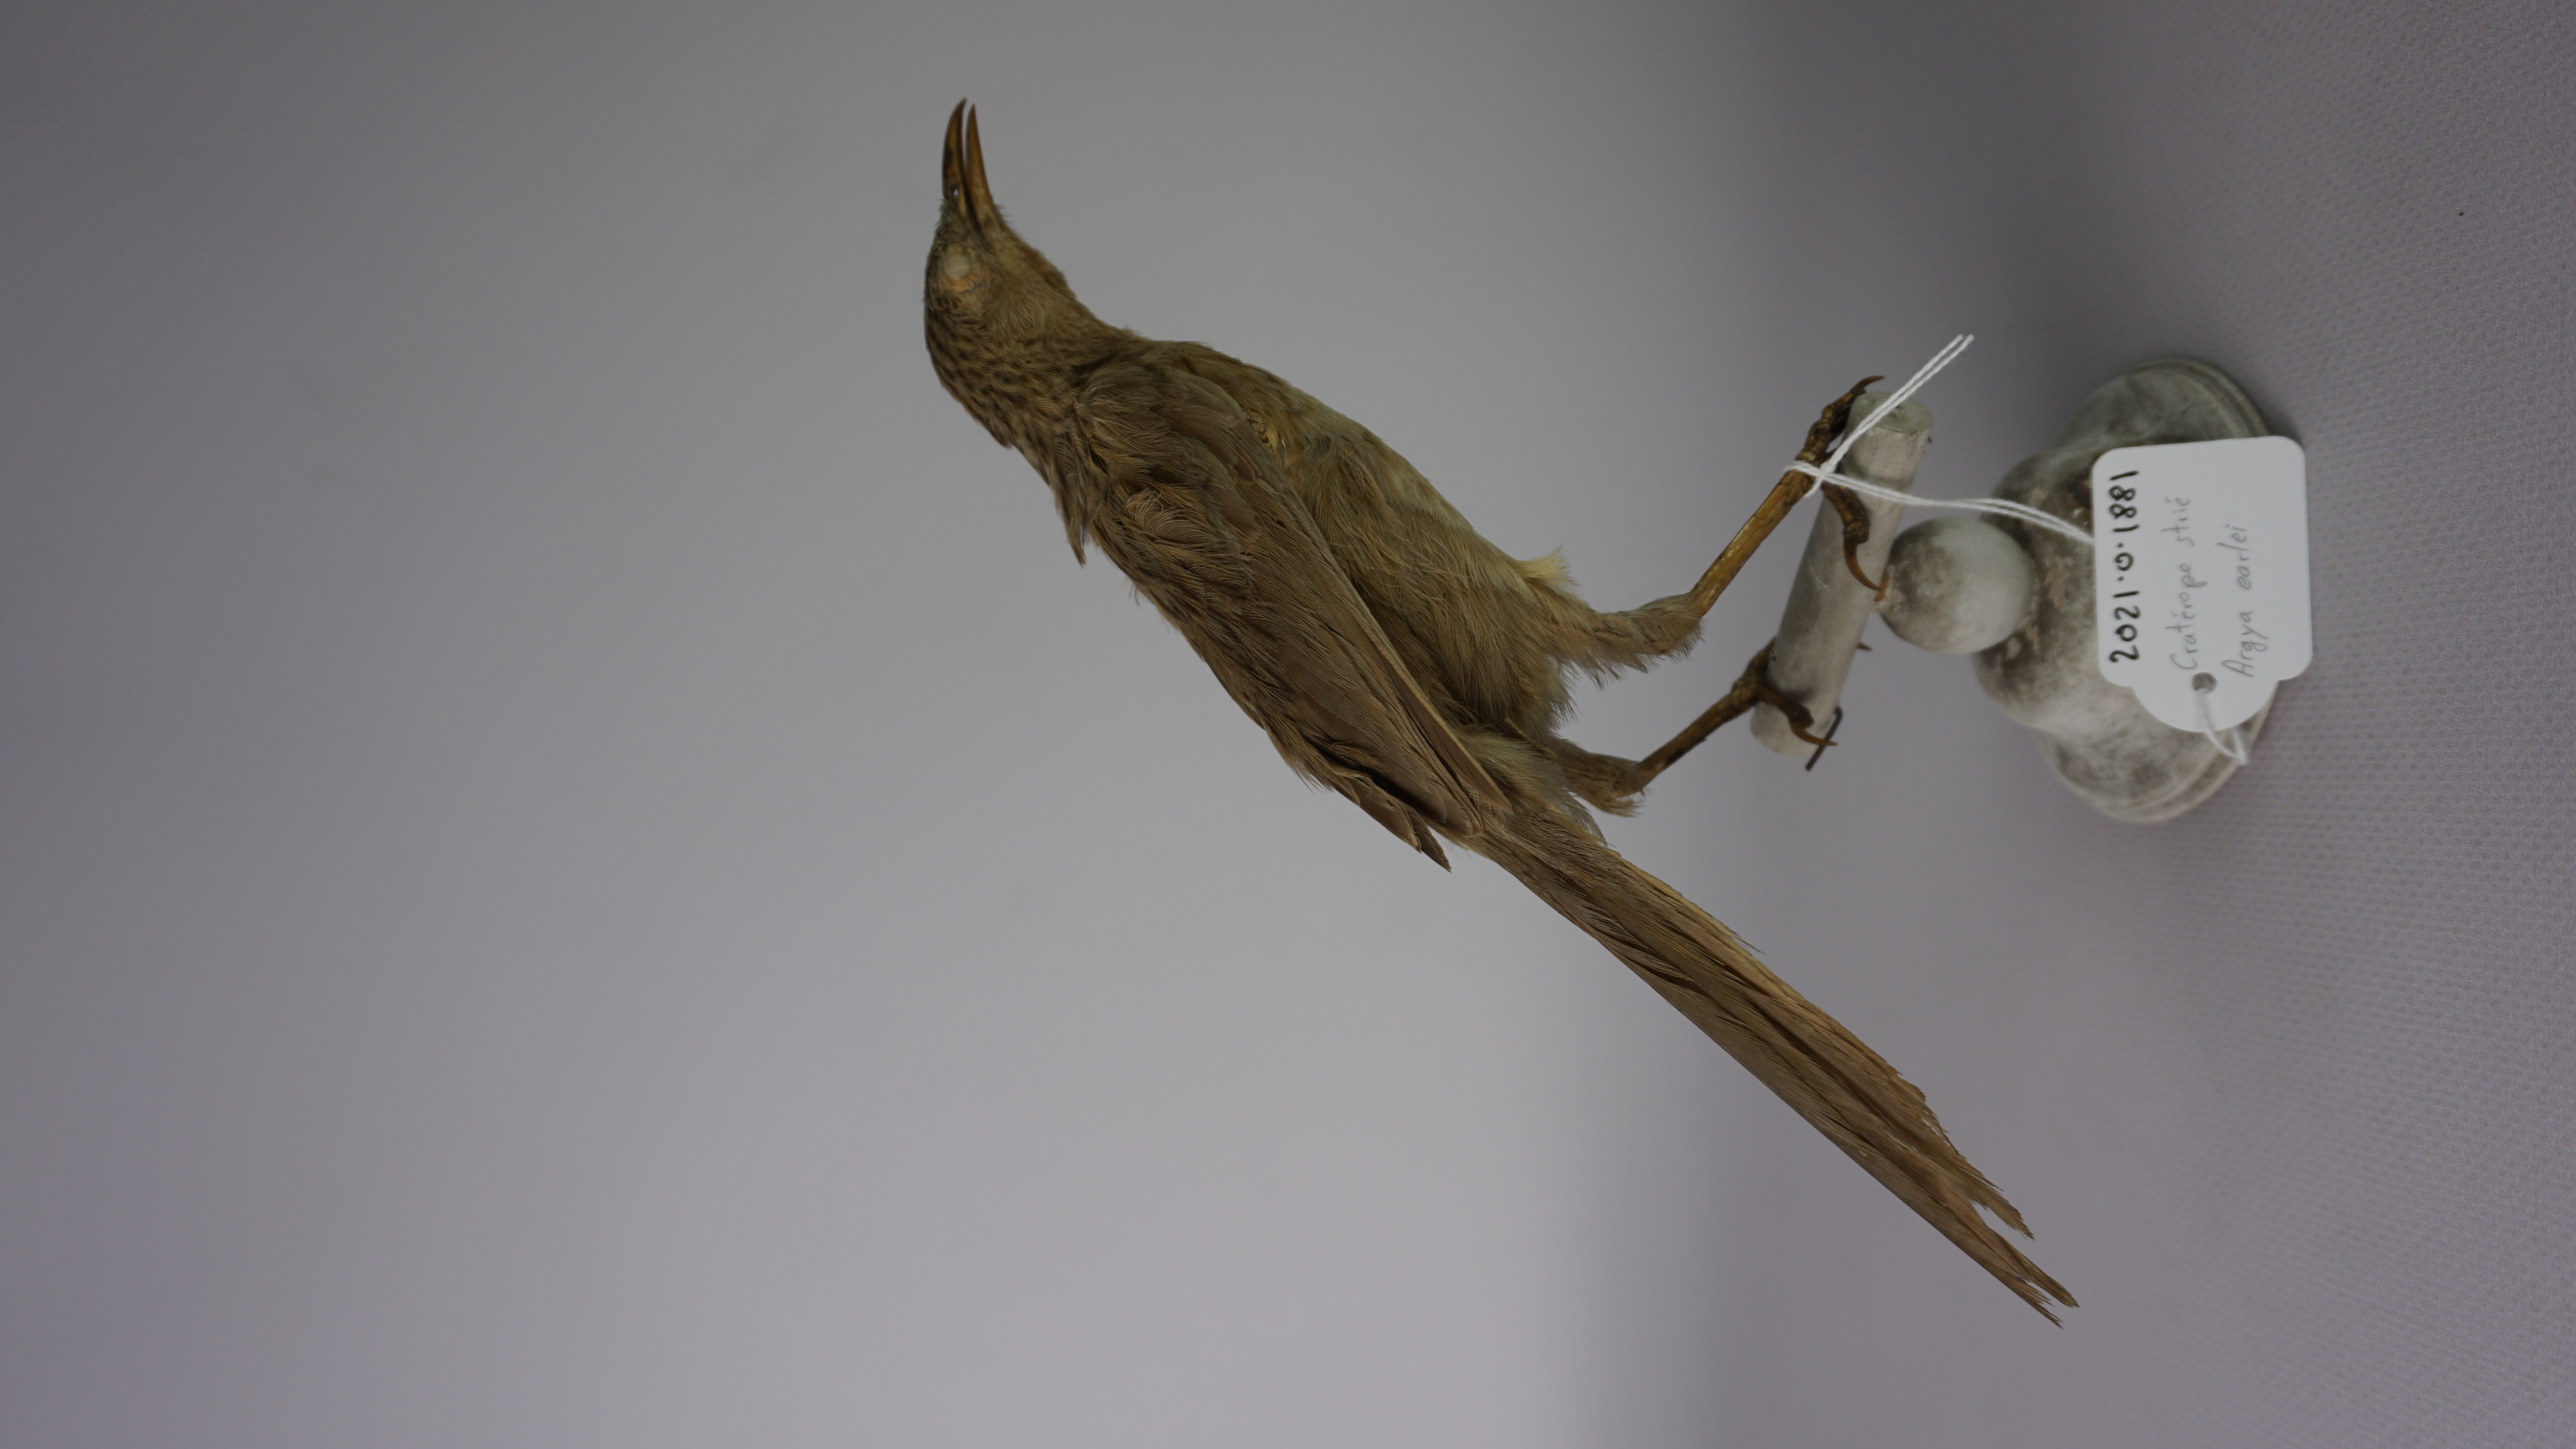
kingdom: Animalia
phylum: Chordata
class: Aves
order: Passeriformes
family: Leiothrichidae
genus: Turdoides
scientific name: Turdoides earlei
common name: Striated babbler
